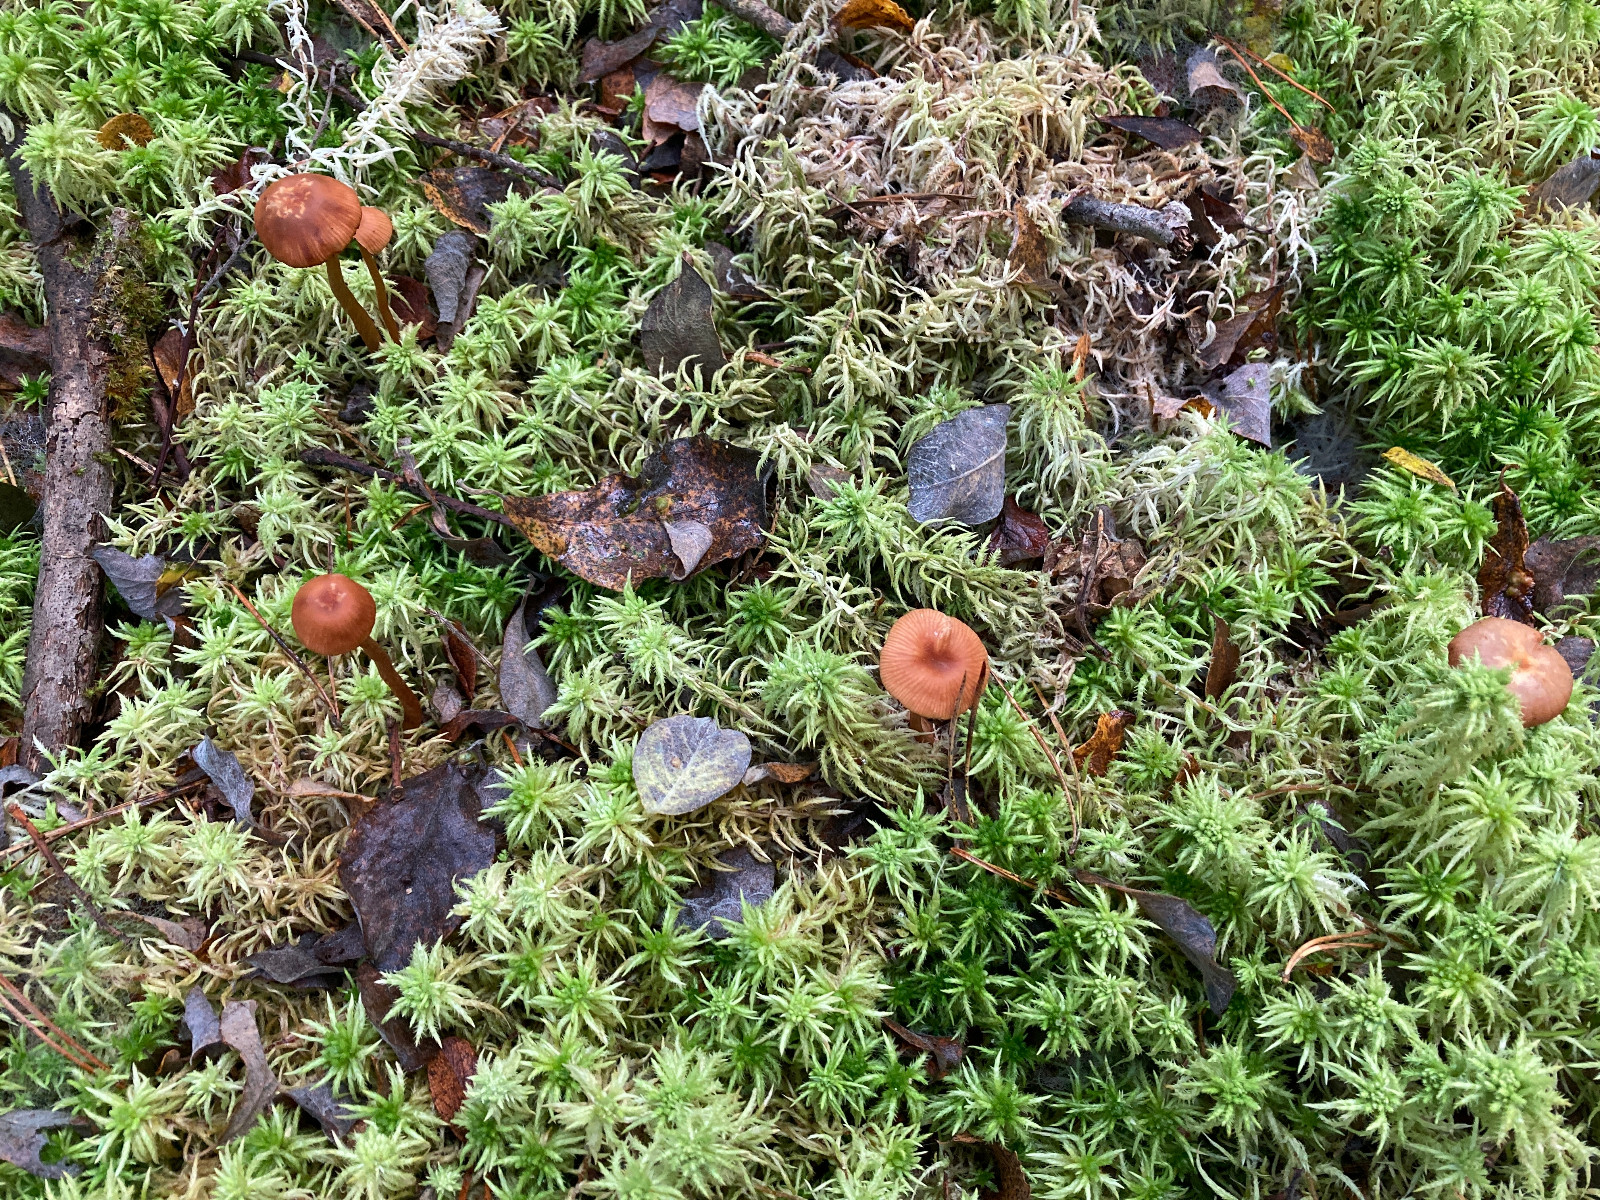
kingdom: Fungi
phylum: Basidiomycota
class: Agaricomycetes
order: Agaricales
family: Hydnangiaceae
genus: Laccaria
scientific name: Laccaria proxima
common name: stor ametysthat
